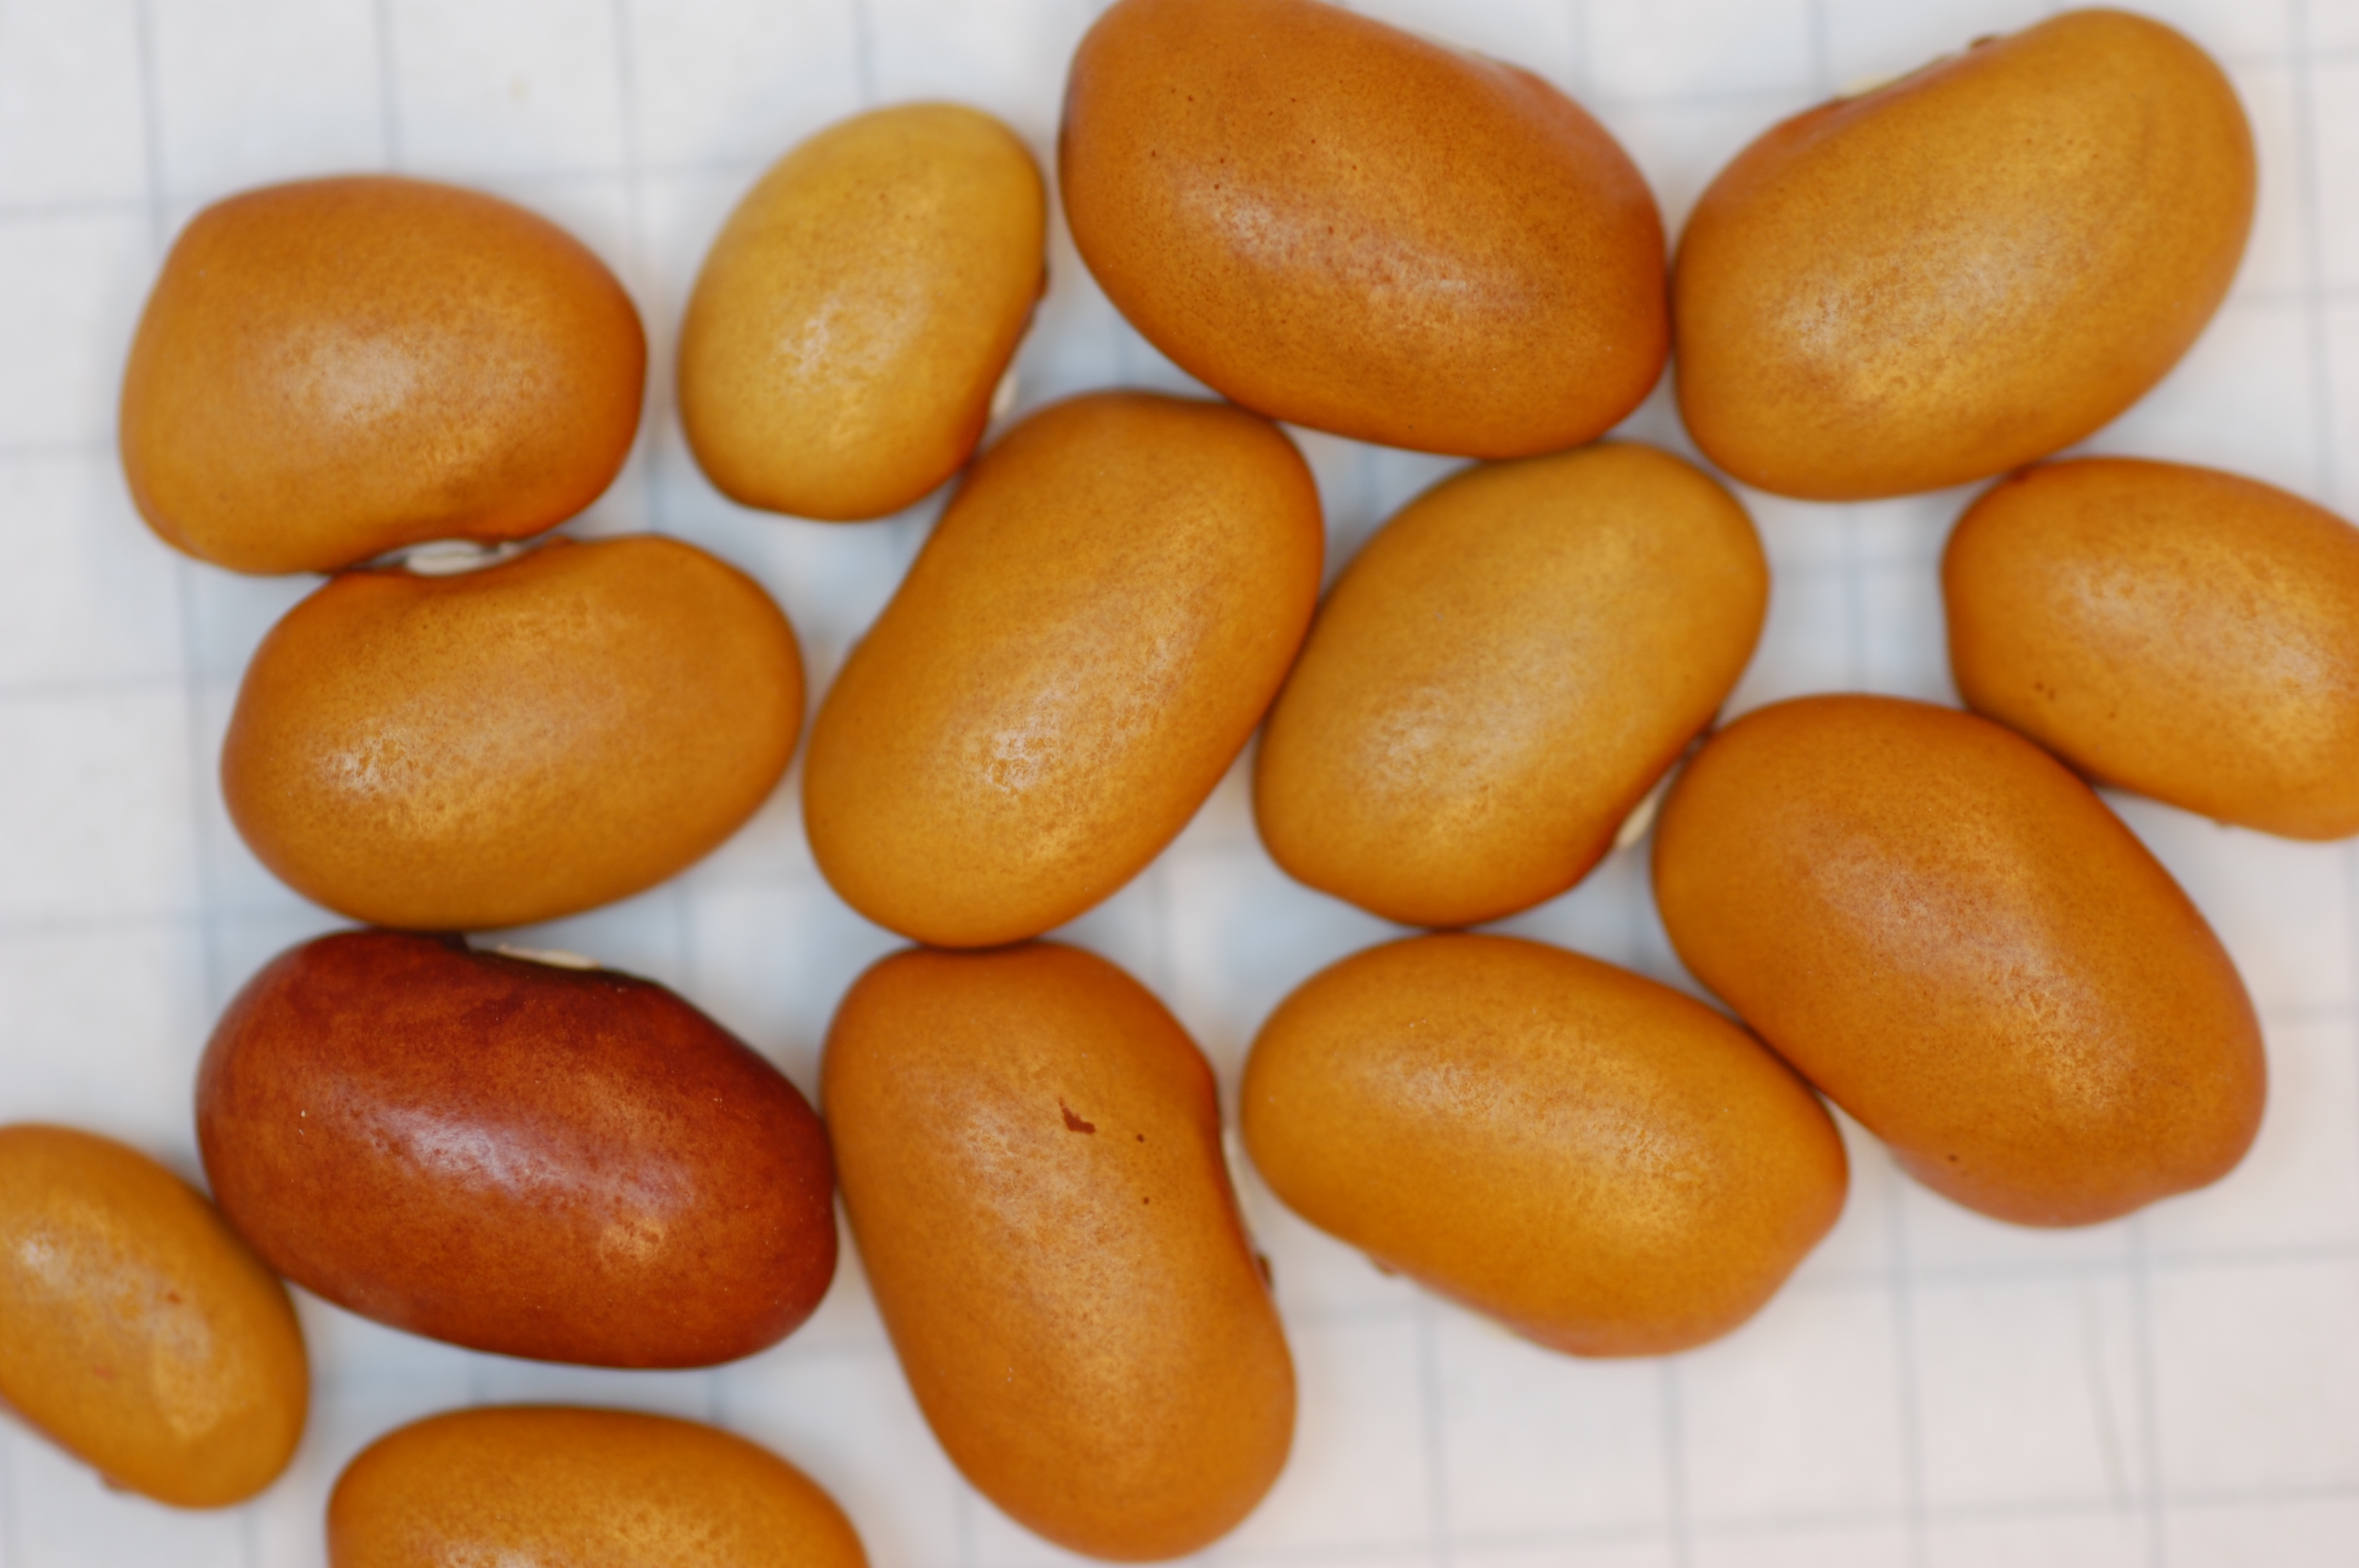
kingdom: Plantae
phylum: Tracheophyta
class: Magnoliopsida
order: Fabales
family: Fabaceae
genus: Phaseolus
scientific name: Phaseolus vulgaris
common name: Bean
